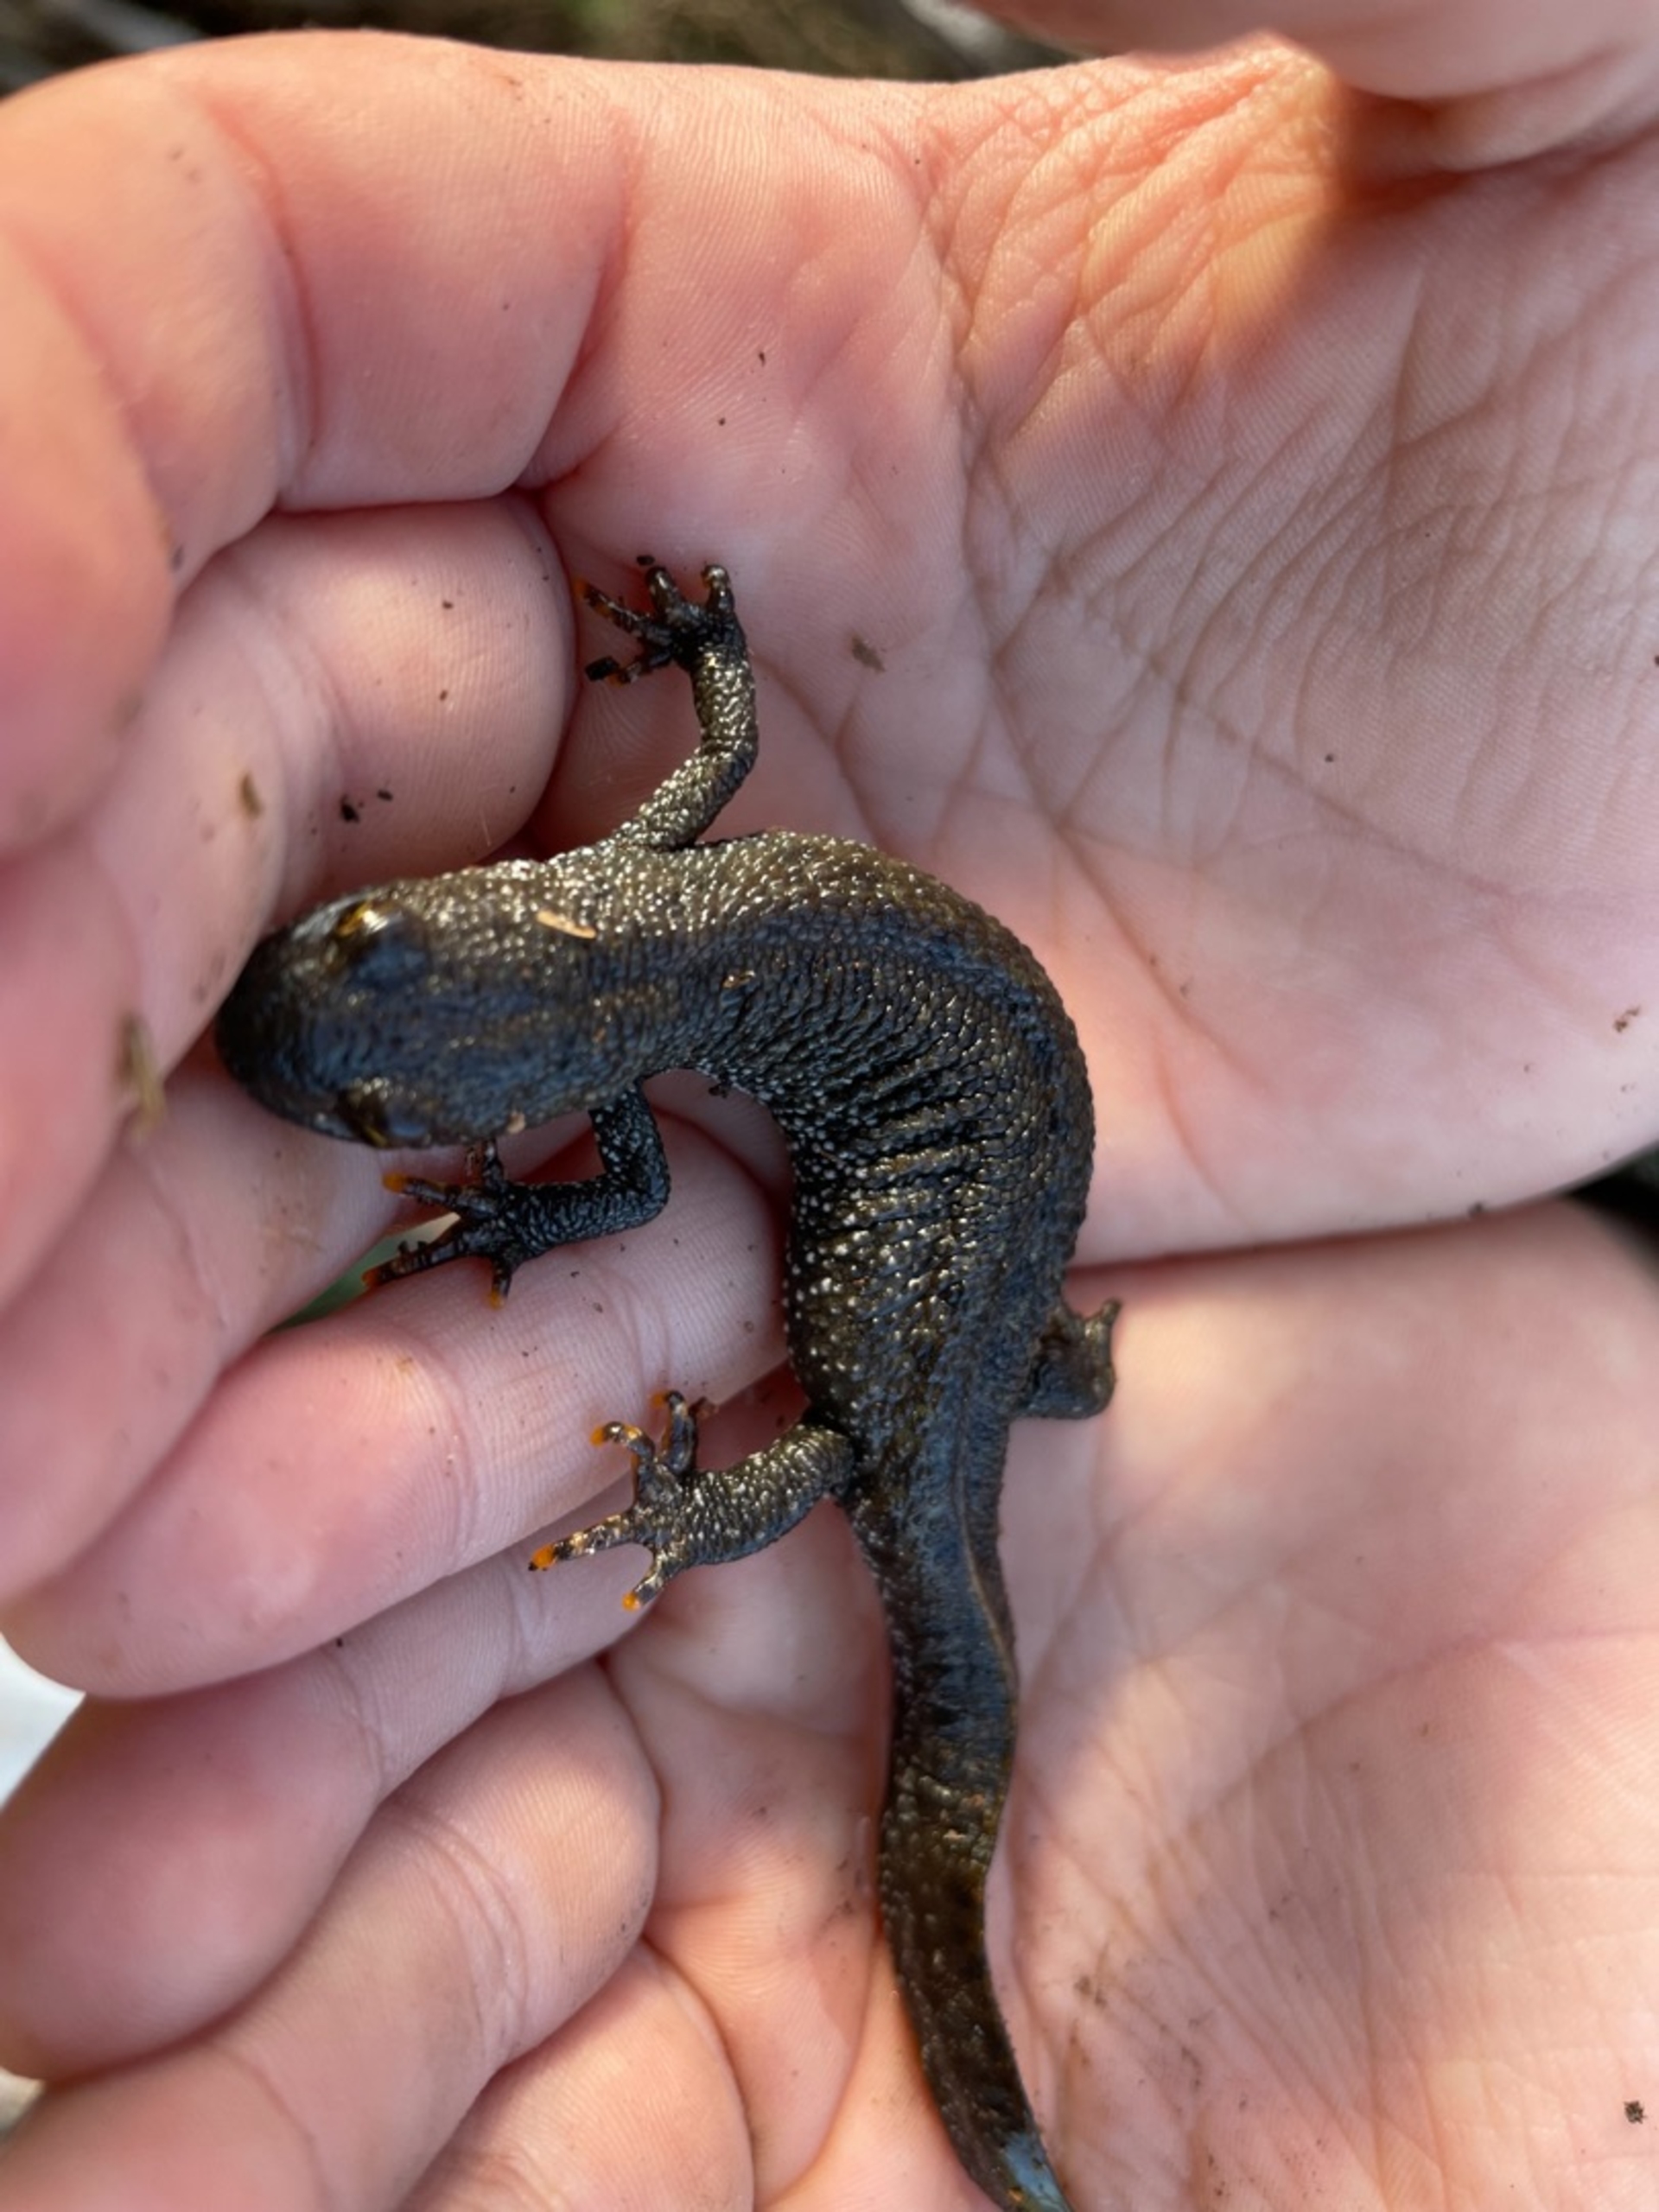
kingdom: Animalia
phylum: Chordata
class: Amphibia
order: Caudata
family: Salamandridae
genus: Triturus
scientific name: Triturus cristatus
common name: Stor vandsalamander
